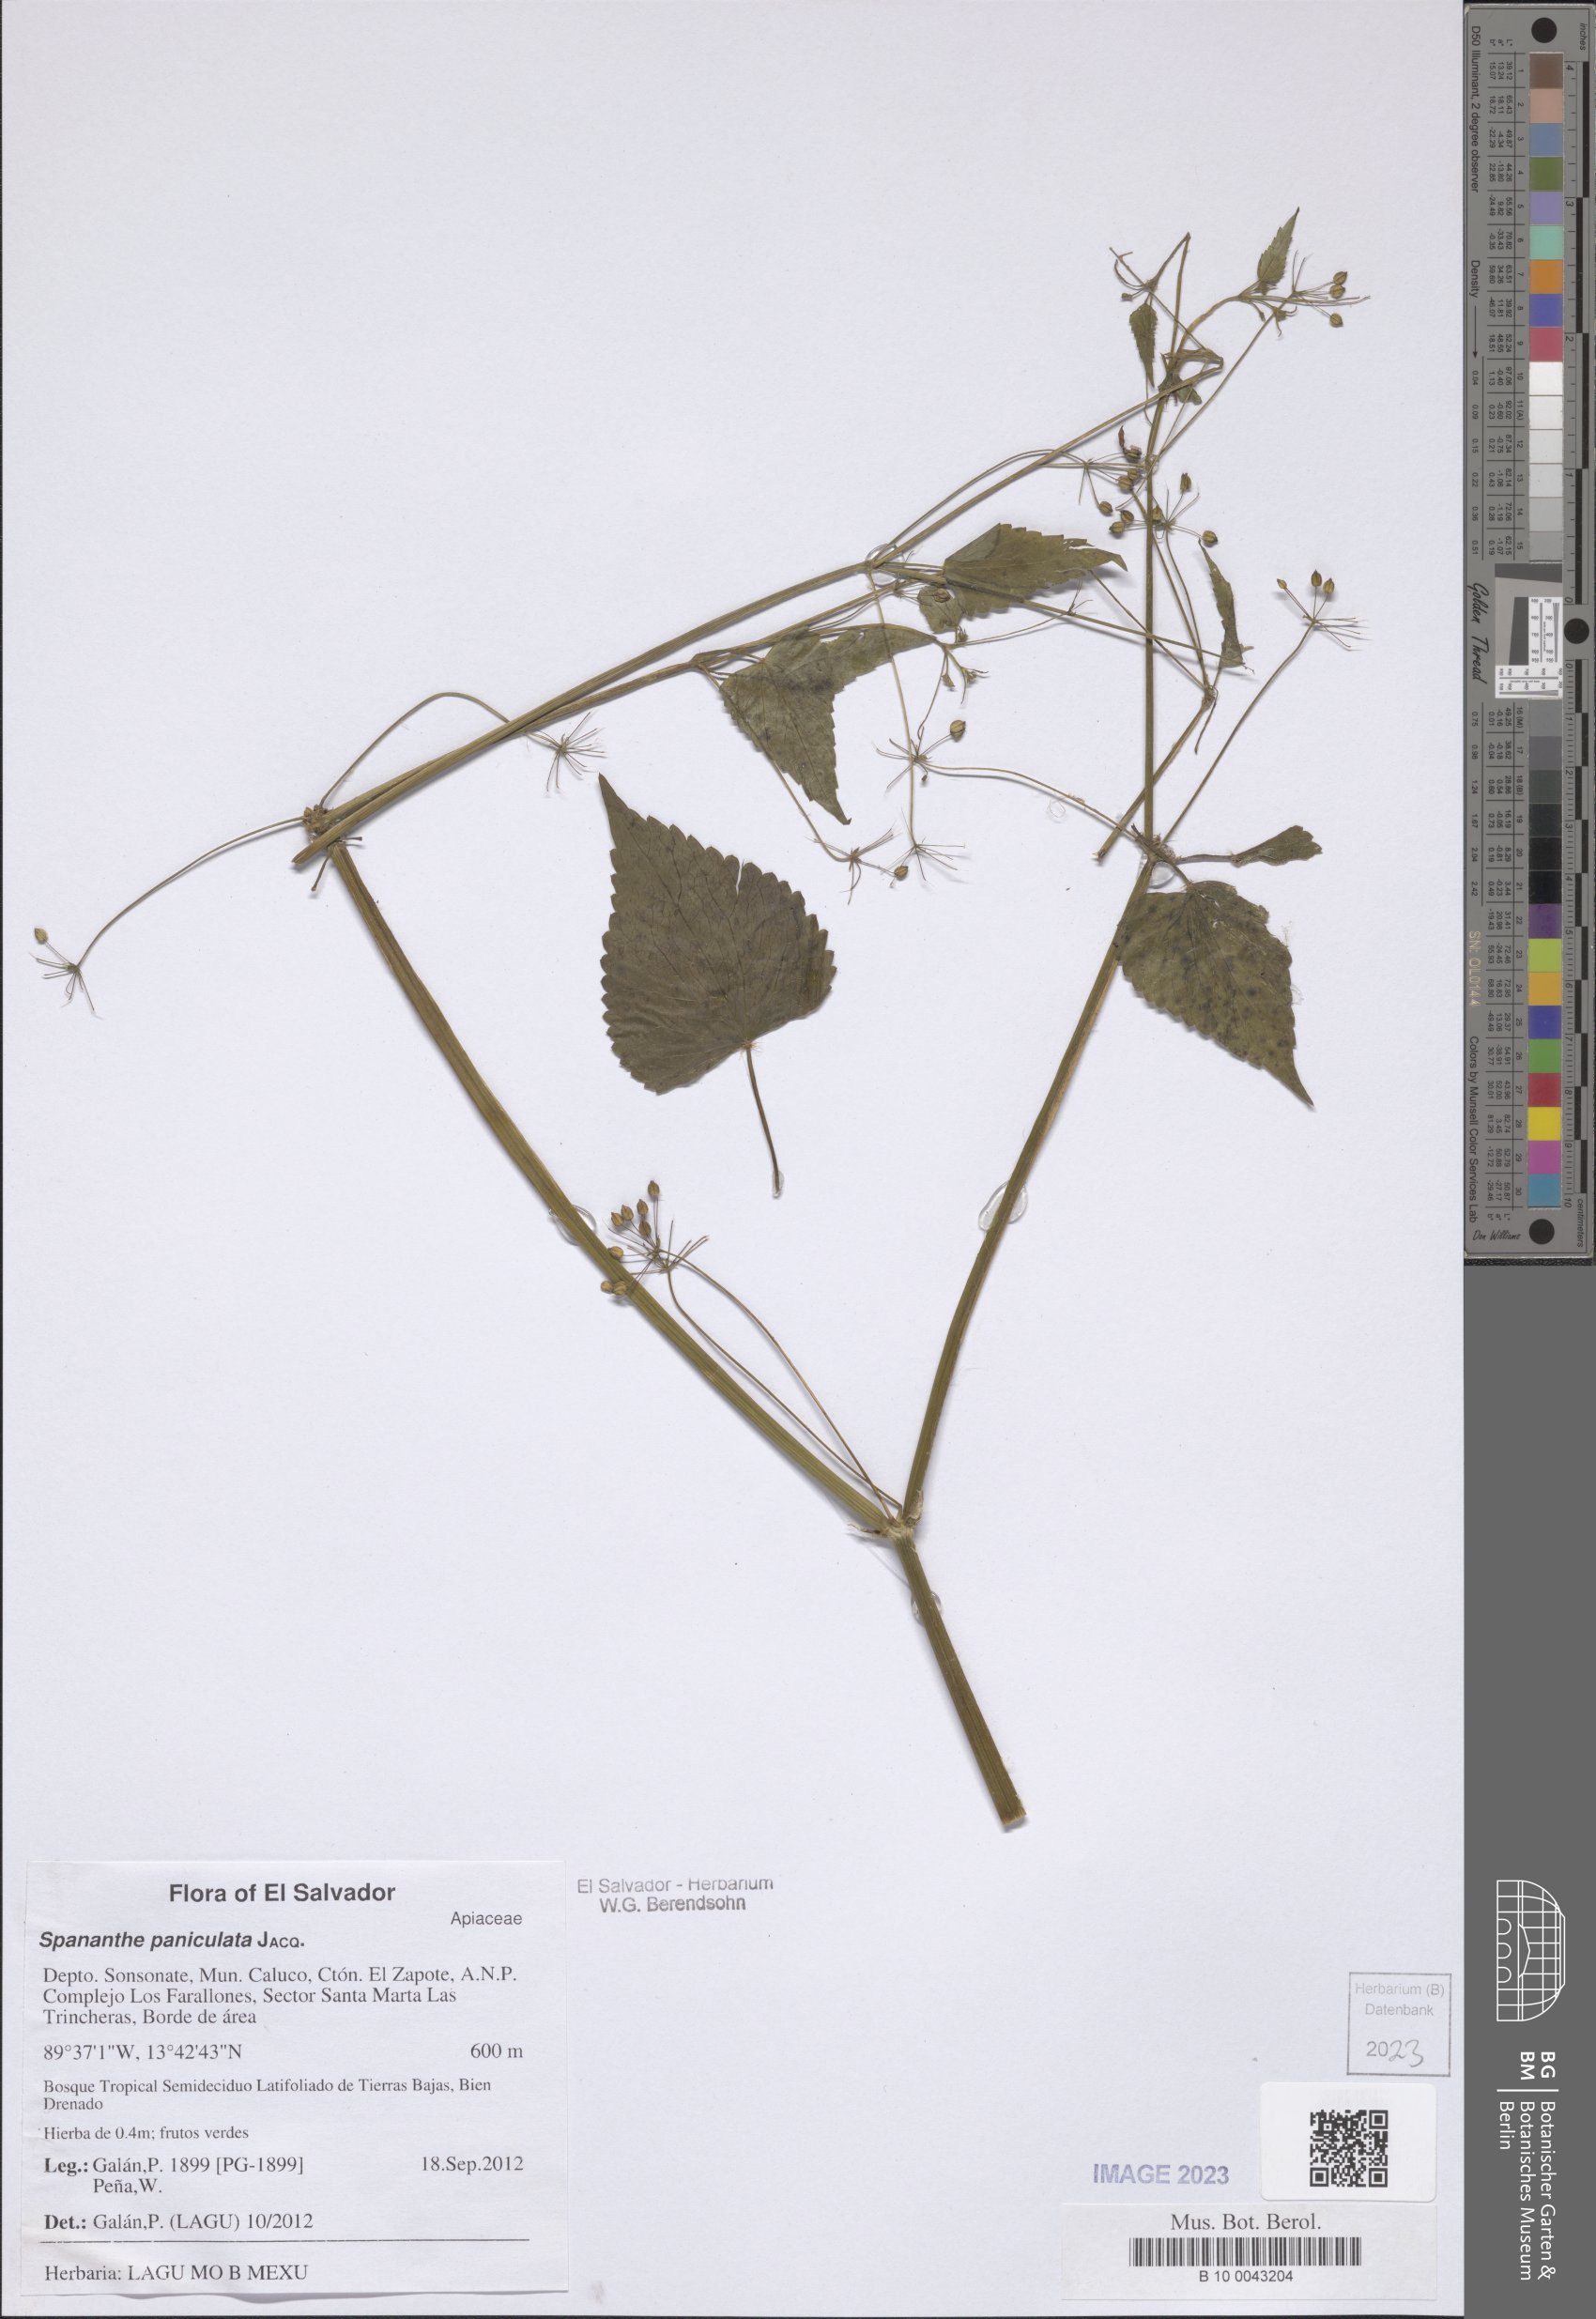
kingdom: Plantae
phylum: Tracheophyta
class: Magnoliopsida
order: Apiales
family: Apiaceae
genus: Spananthe
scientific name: Spananthe paniculata
